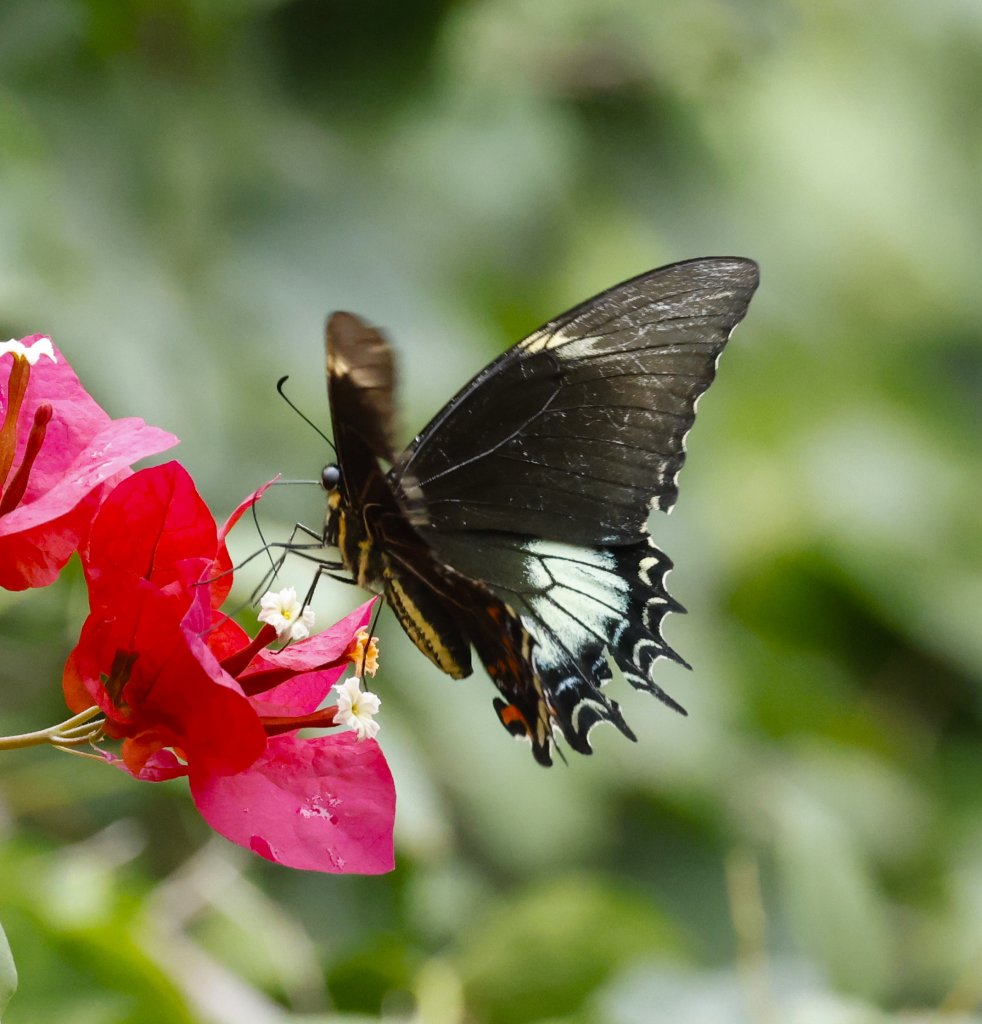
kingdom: Animalia
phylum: Arthropoda
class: Insecta
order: Lepidoptera
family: Papilionidae
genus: Papilio
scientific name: Papilio androgeus
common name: Androgeus Swallowtail
